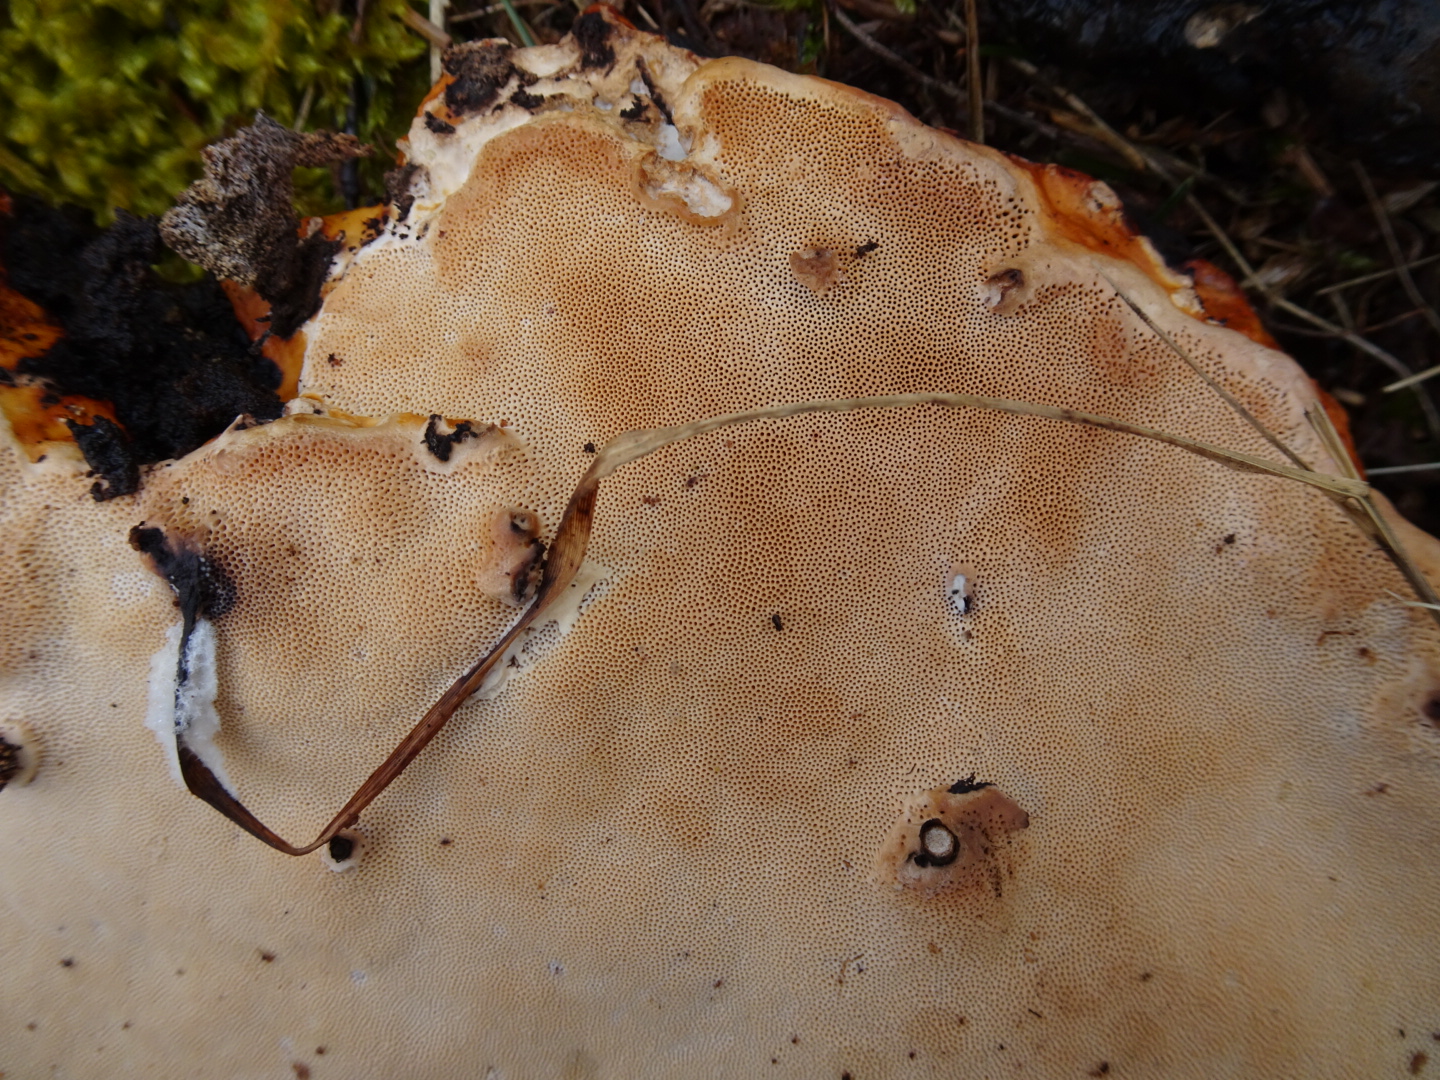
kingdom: Fungi
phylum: Basidiomycota
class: Agaricomycetes
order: Polyporales
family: Fomitopsidaceae
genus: Fomitopsis
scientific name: Fomitopsis pinicola
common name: randbæltet hovporesvamp
